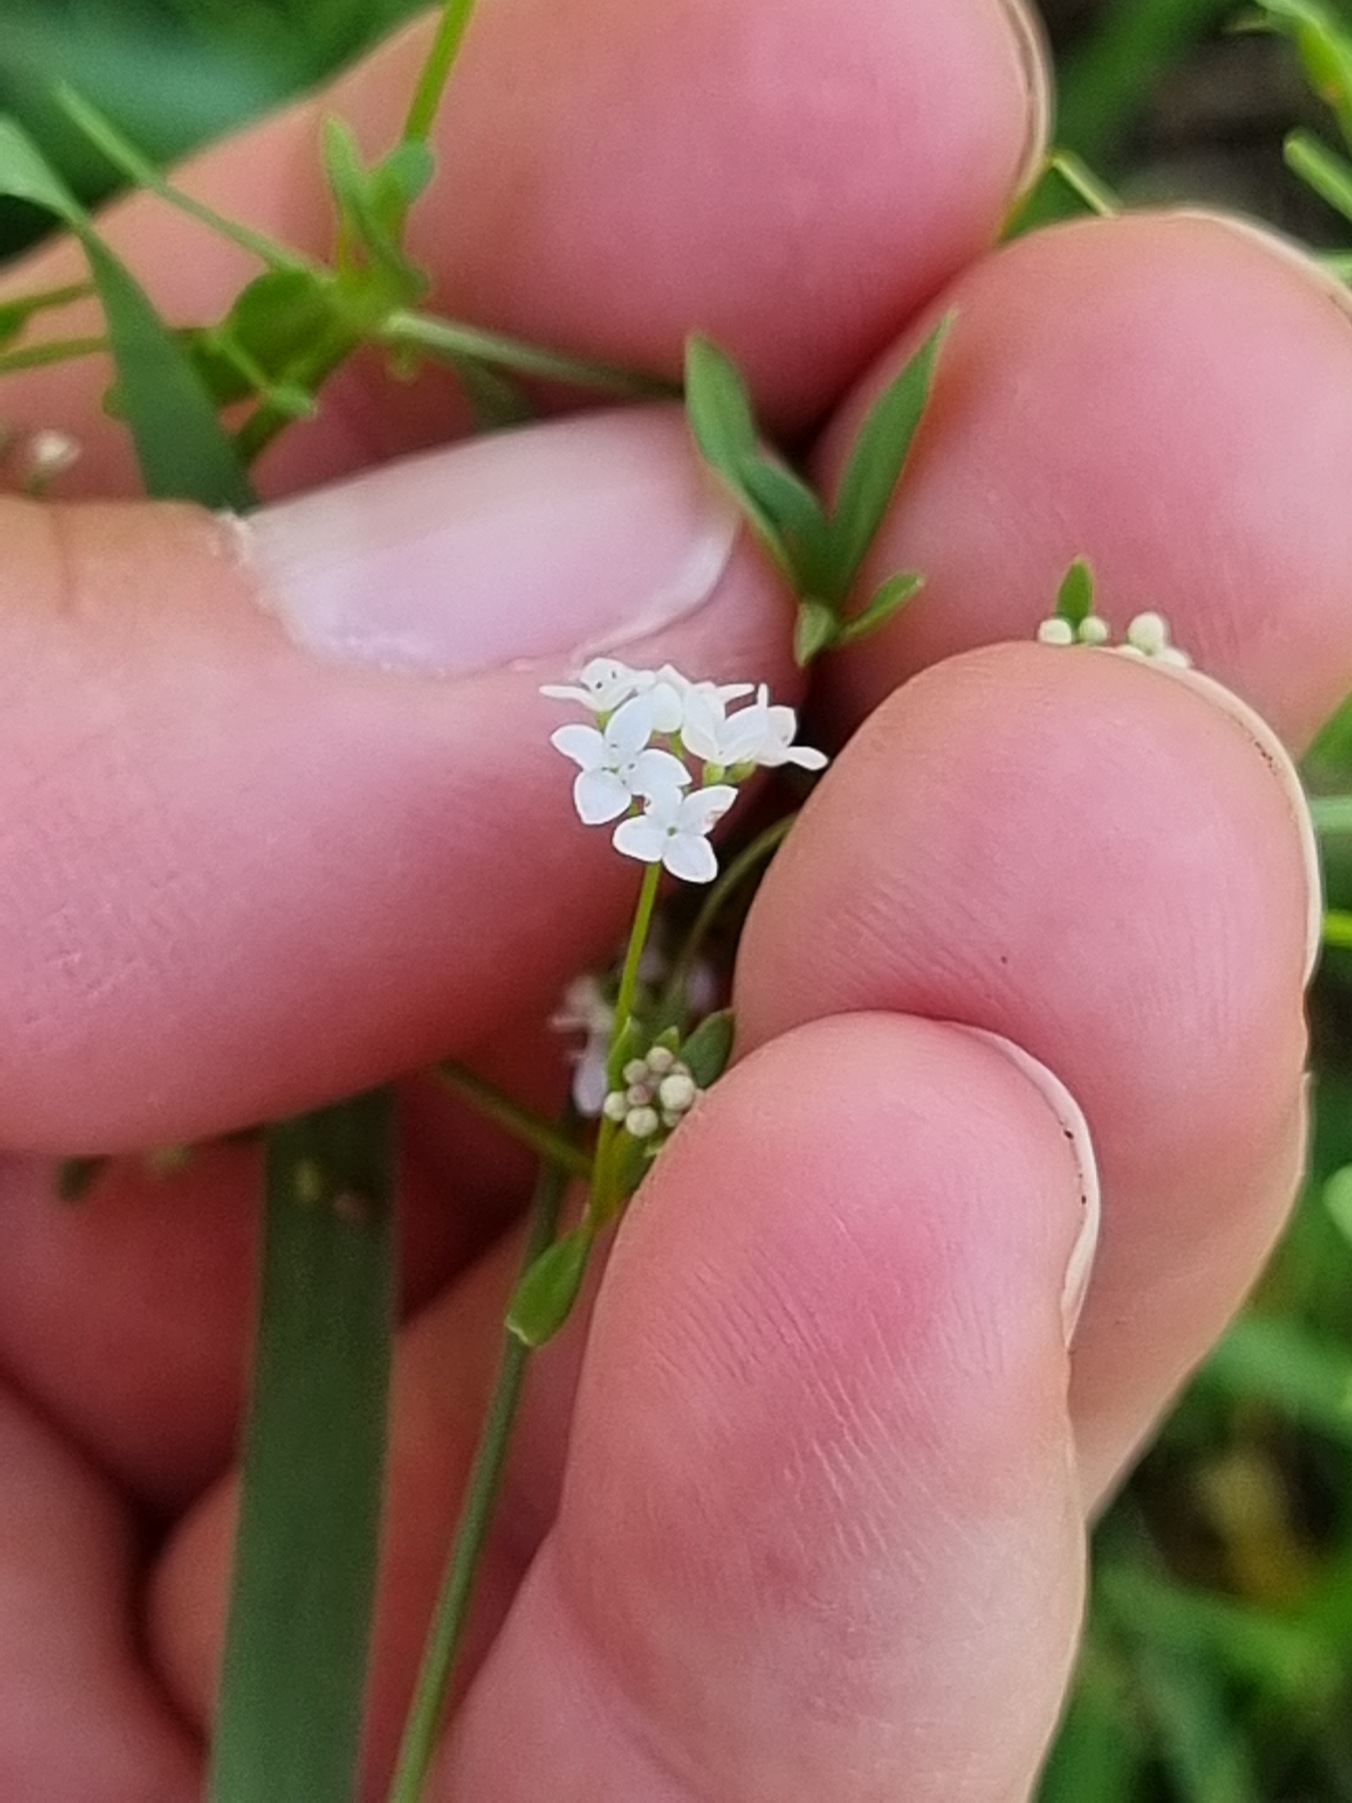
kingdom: Plantae
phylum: Tracheophyta
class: Magnoliopsida
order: Gentianales
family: Rubiaceae
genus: Galium
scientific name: Galium palustre
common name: Kær-snerre
